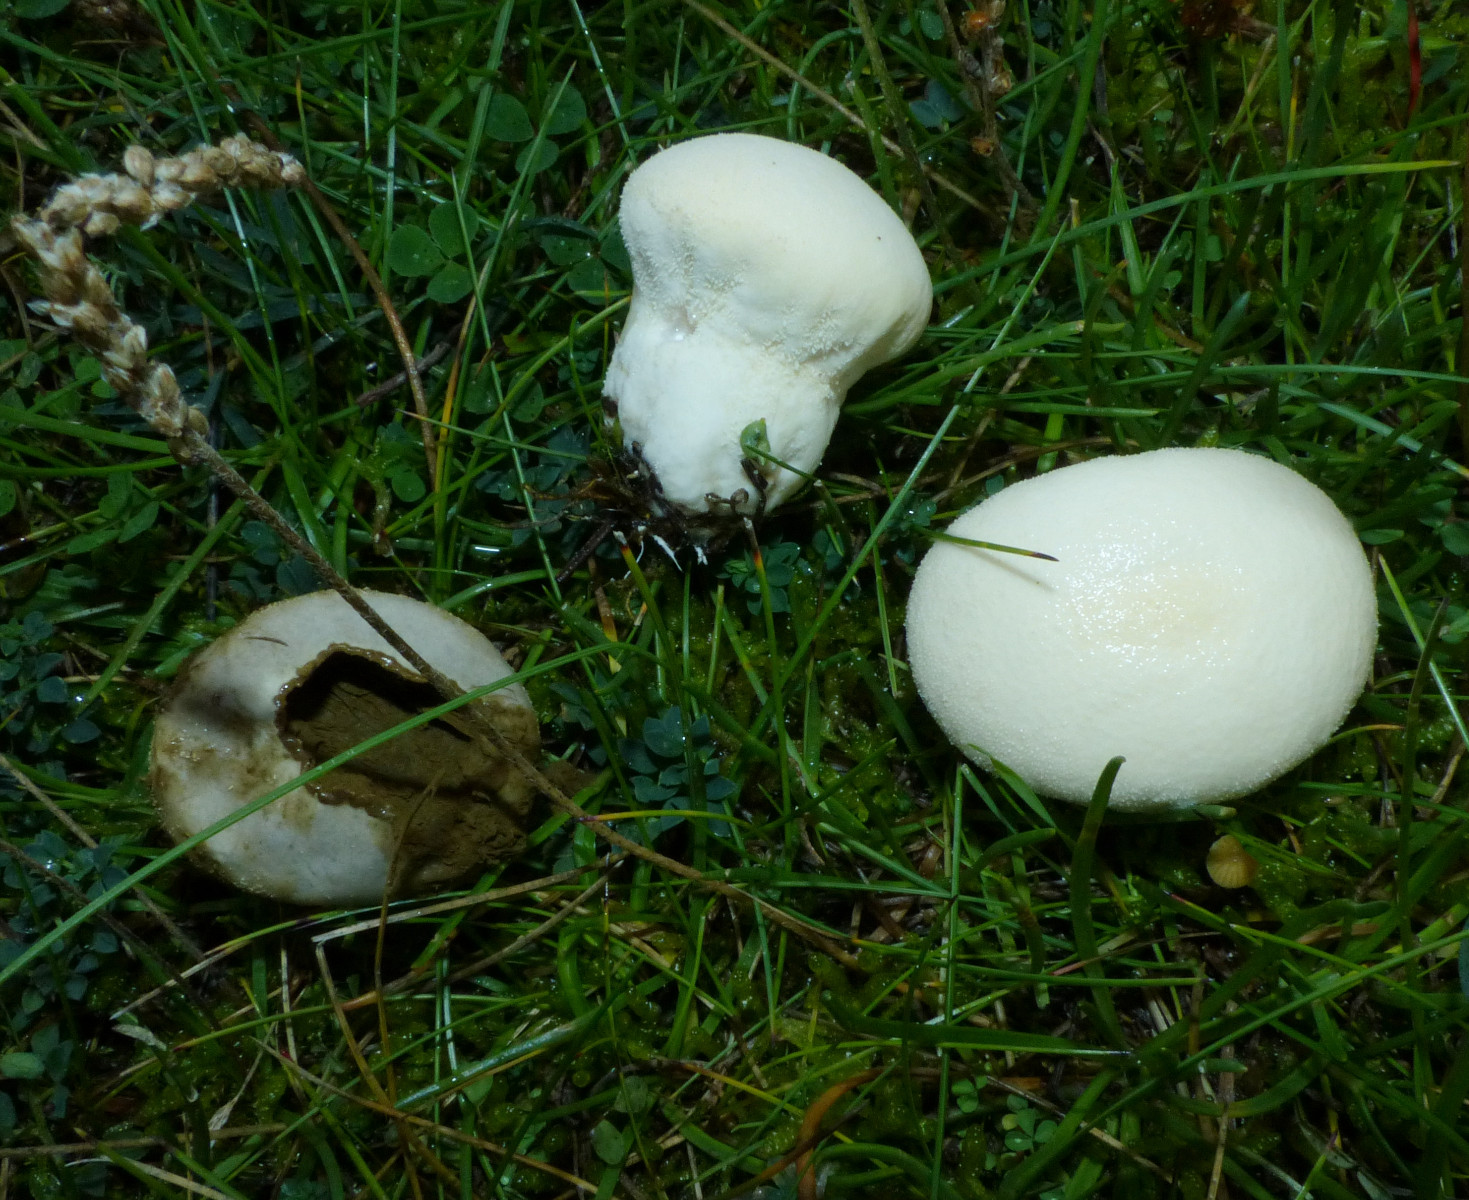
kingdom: Fungi
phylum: Basidiomycota
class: Agaricomycetes
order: Agaricales
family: Lycoperdaceae
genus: Lycoperdon
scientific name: Lycoperdon pratense
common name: flad støvbold
